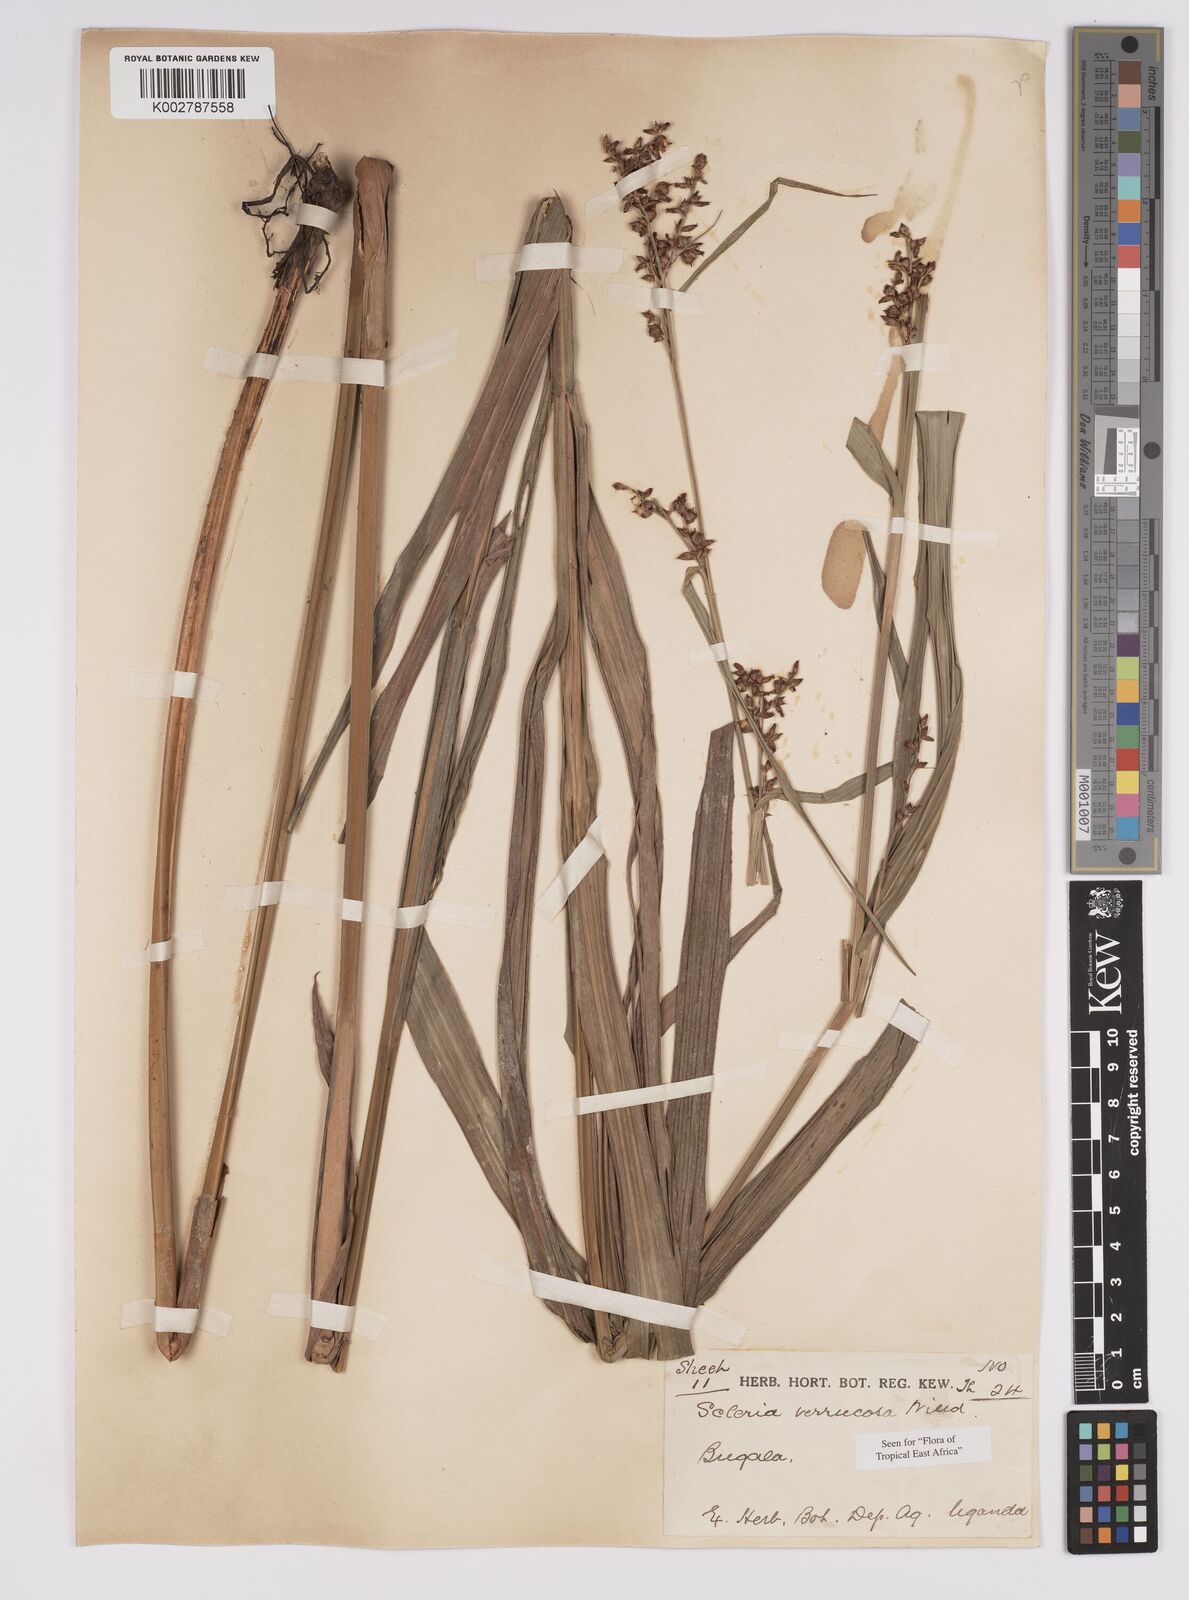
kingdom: Plantae
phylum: Tracheophyta
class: Liliopsida
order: Poales
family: Cyperaceae
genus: Scleria
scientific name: Scleria verrucosa
